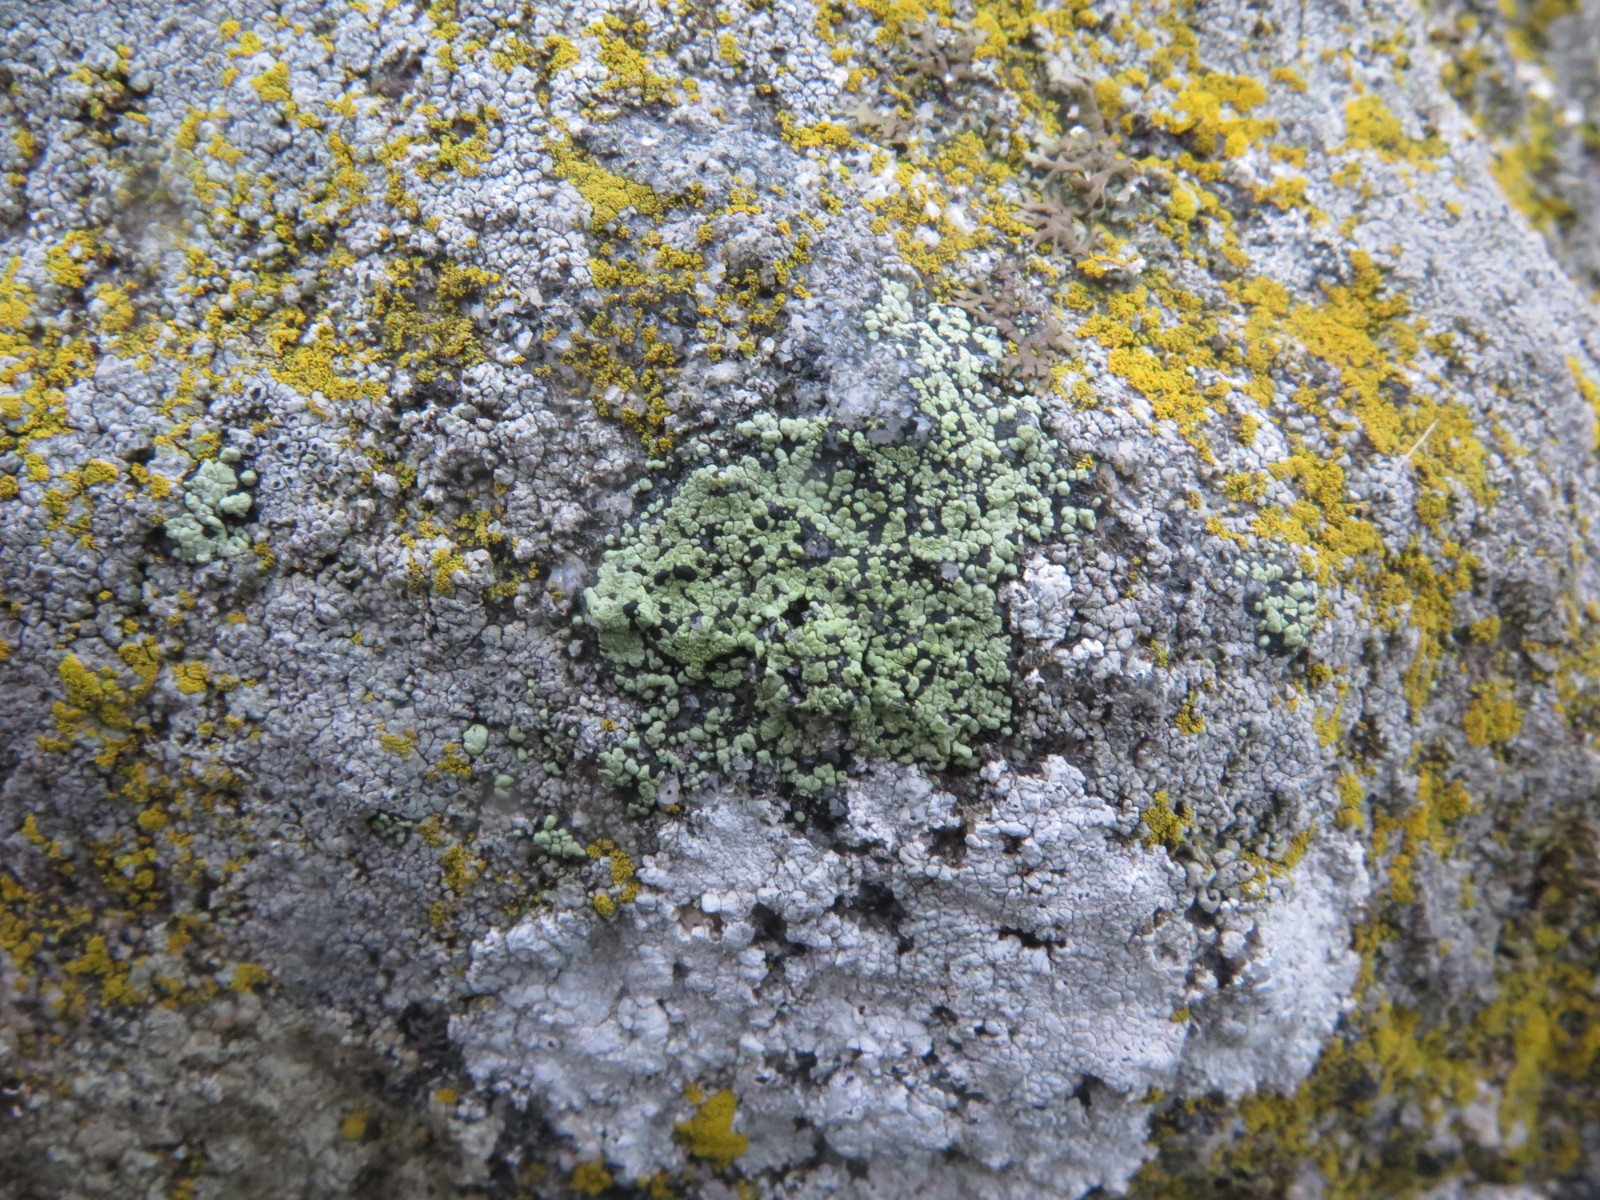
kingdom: Fungi
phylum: Ascomycota
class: Lecanoromycetes
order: Rhizocarpales
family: Rhizocarpaceae
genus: Rhizocarpon
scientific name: Rhizocarpon lecanorinum
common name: krave-landkortlav
